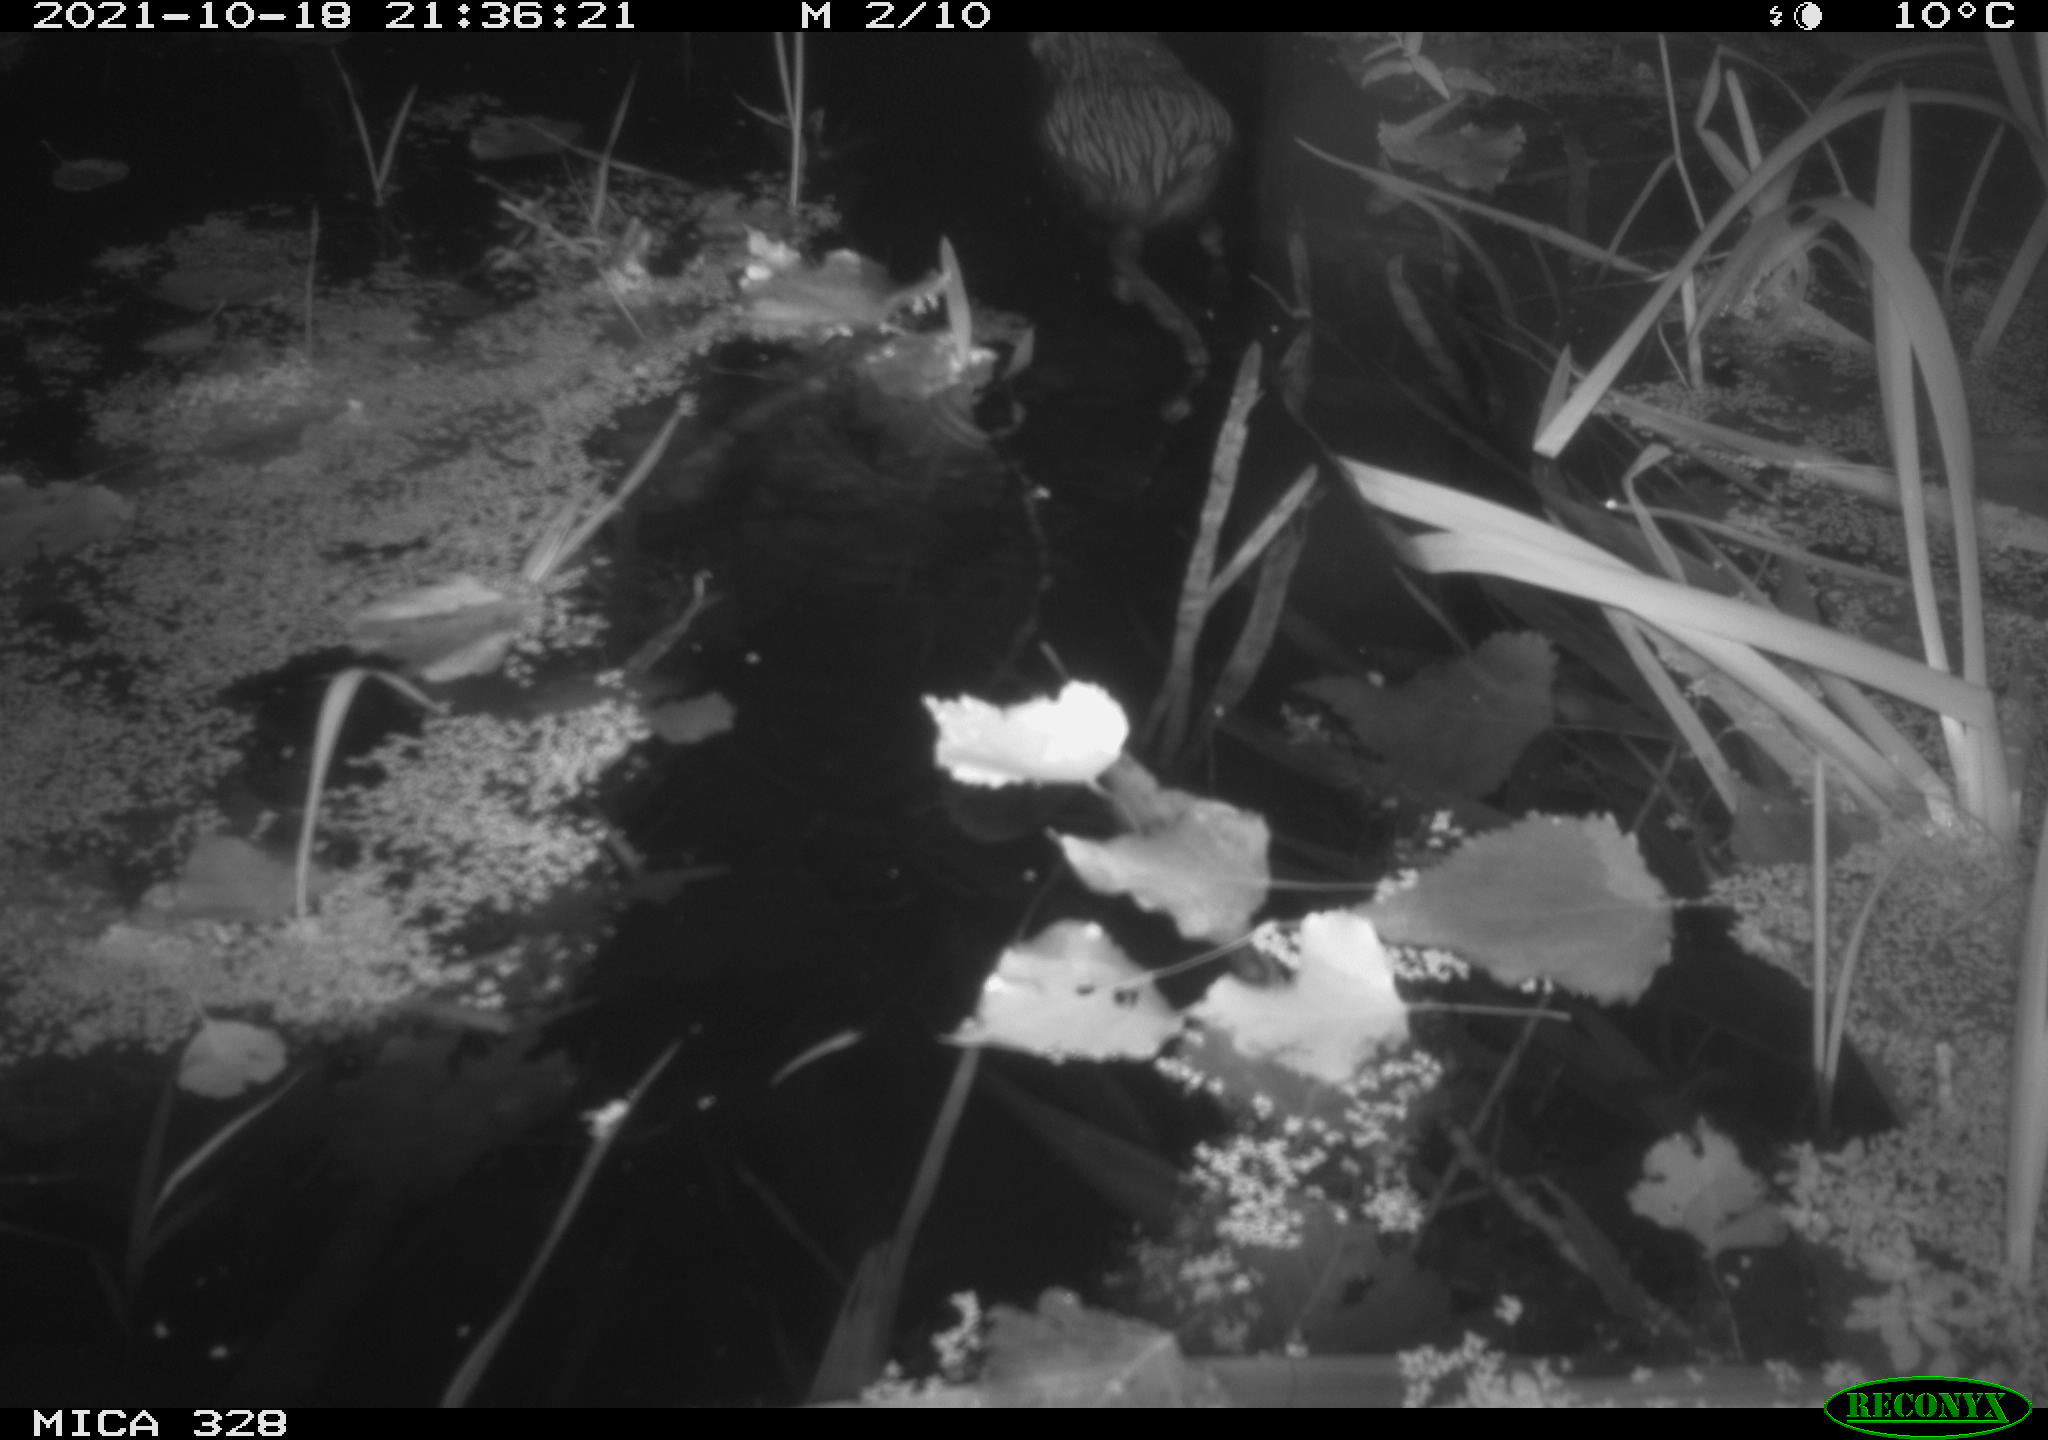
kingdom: Animalia
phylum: Chordata
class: Mammalia
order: Rodentia
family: Cricetidae
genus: Ondatra
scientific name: Ondatra zibethicus
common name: Muskrat
